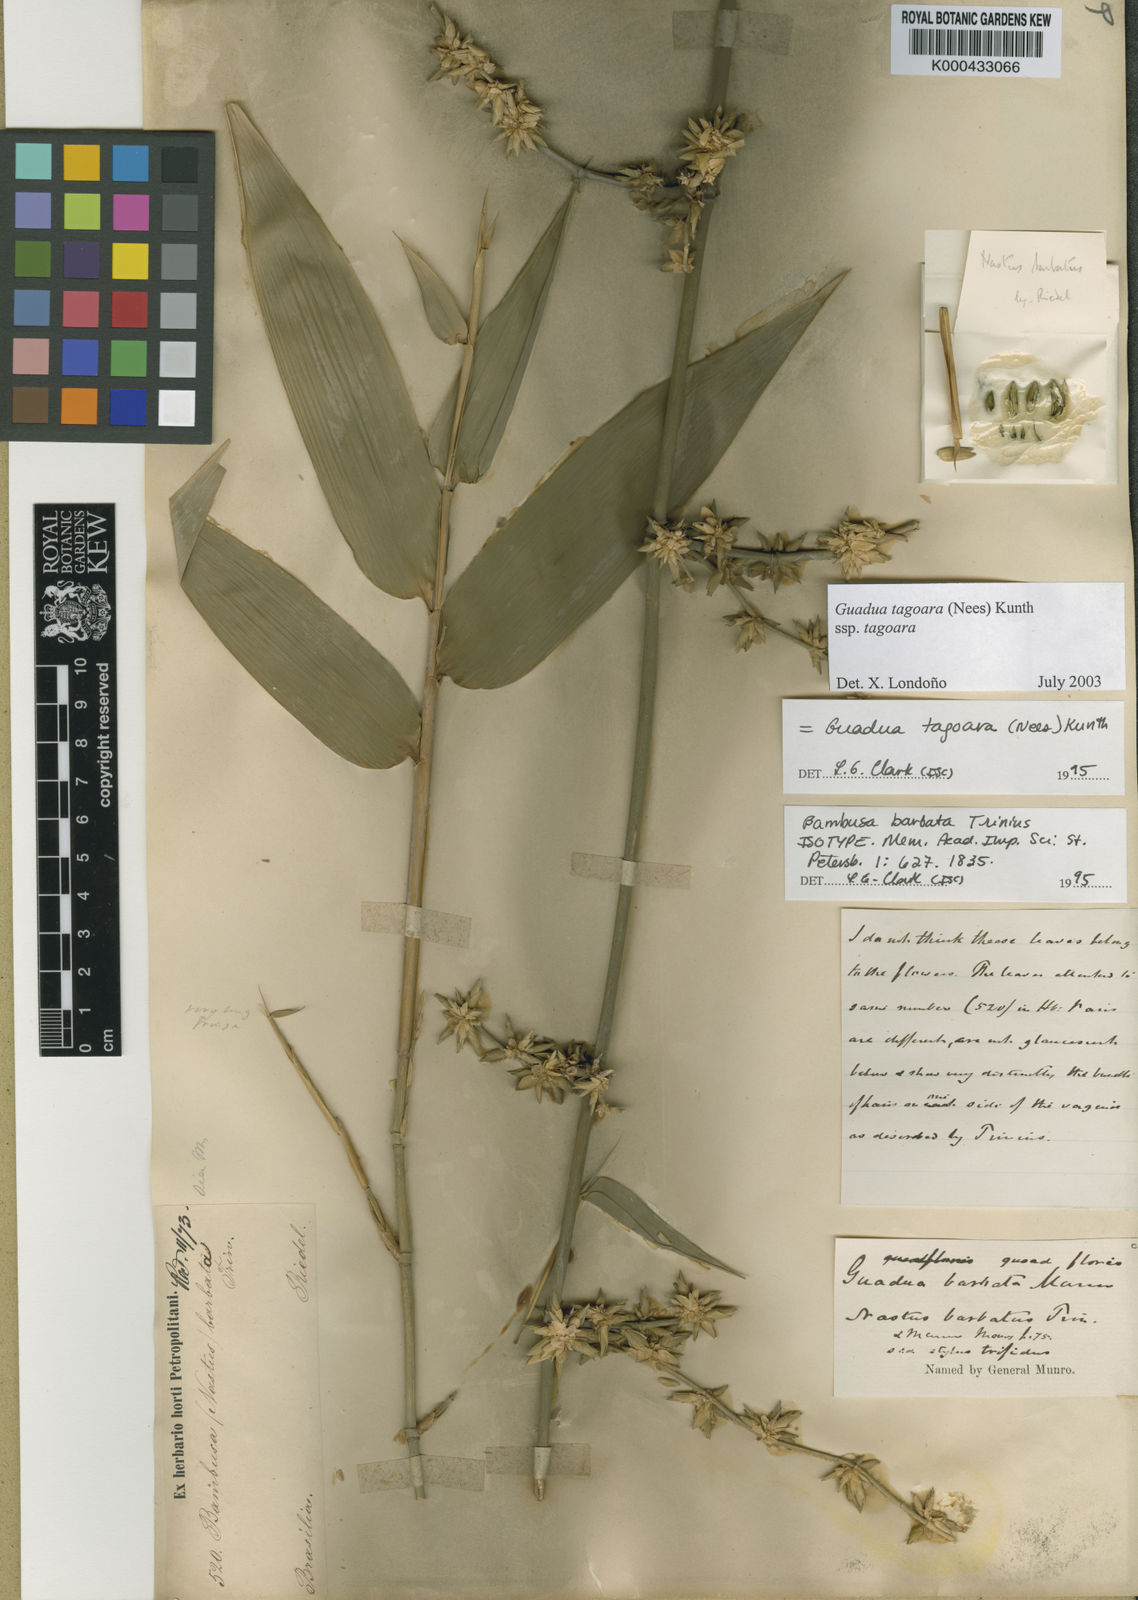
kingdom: Plantae
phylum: Tracheophyta
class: Liliopsida
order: Poales
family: Poaceae
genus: Guadua
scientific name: Guadua tagoara
